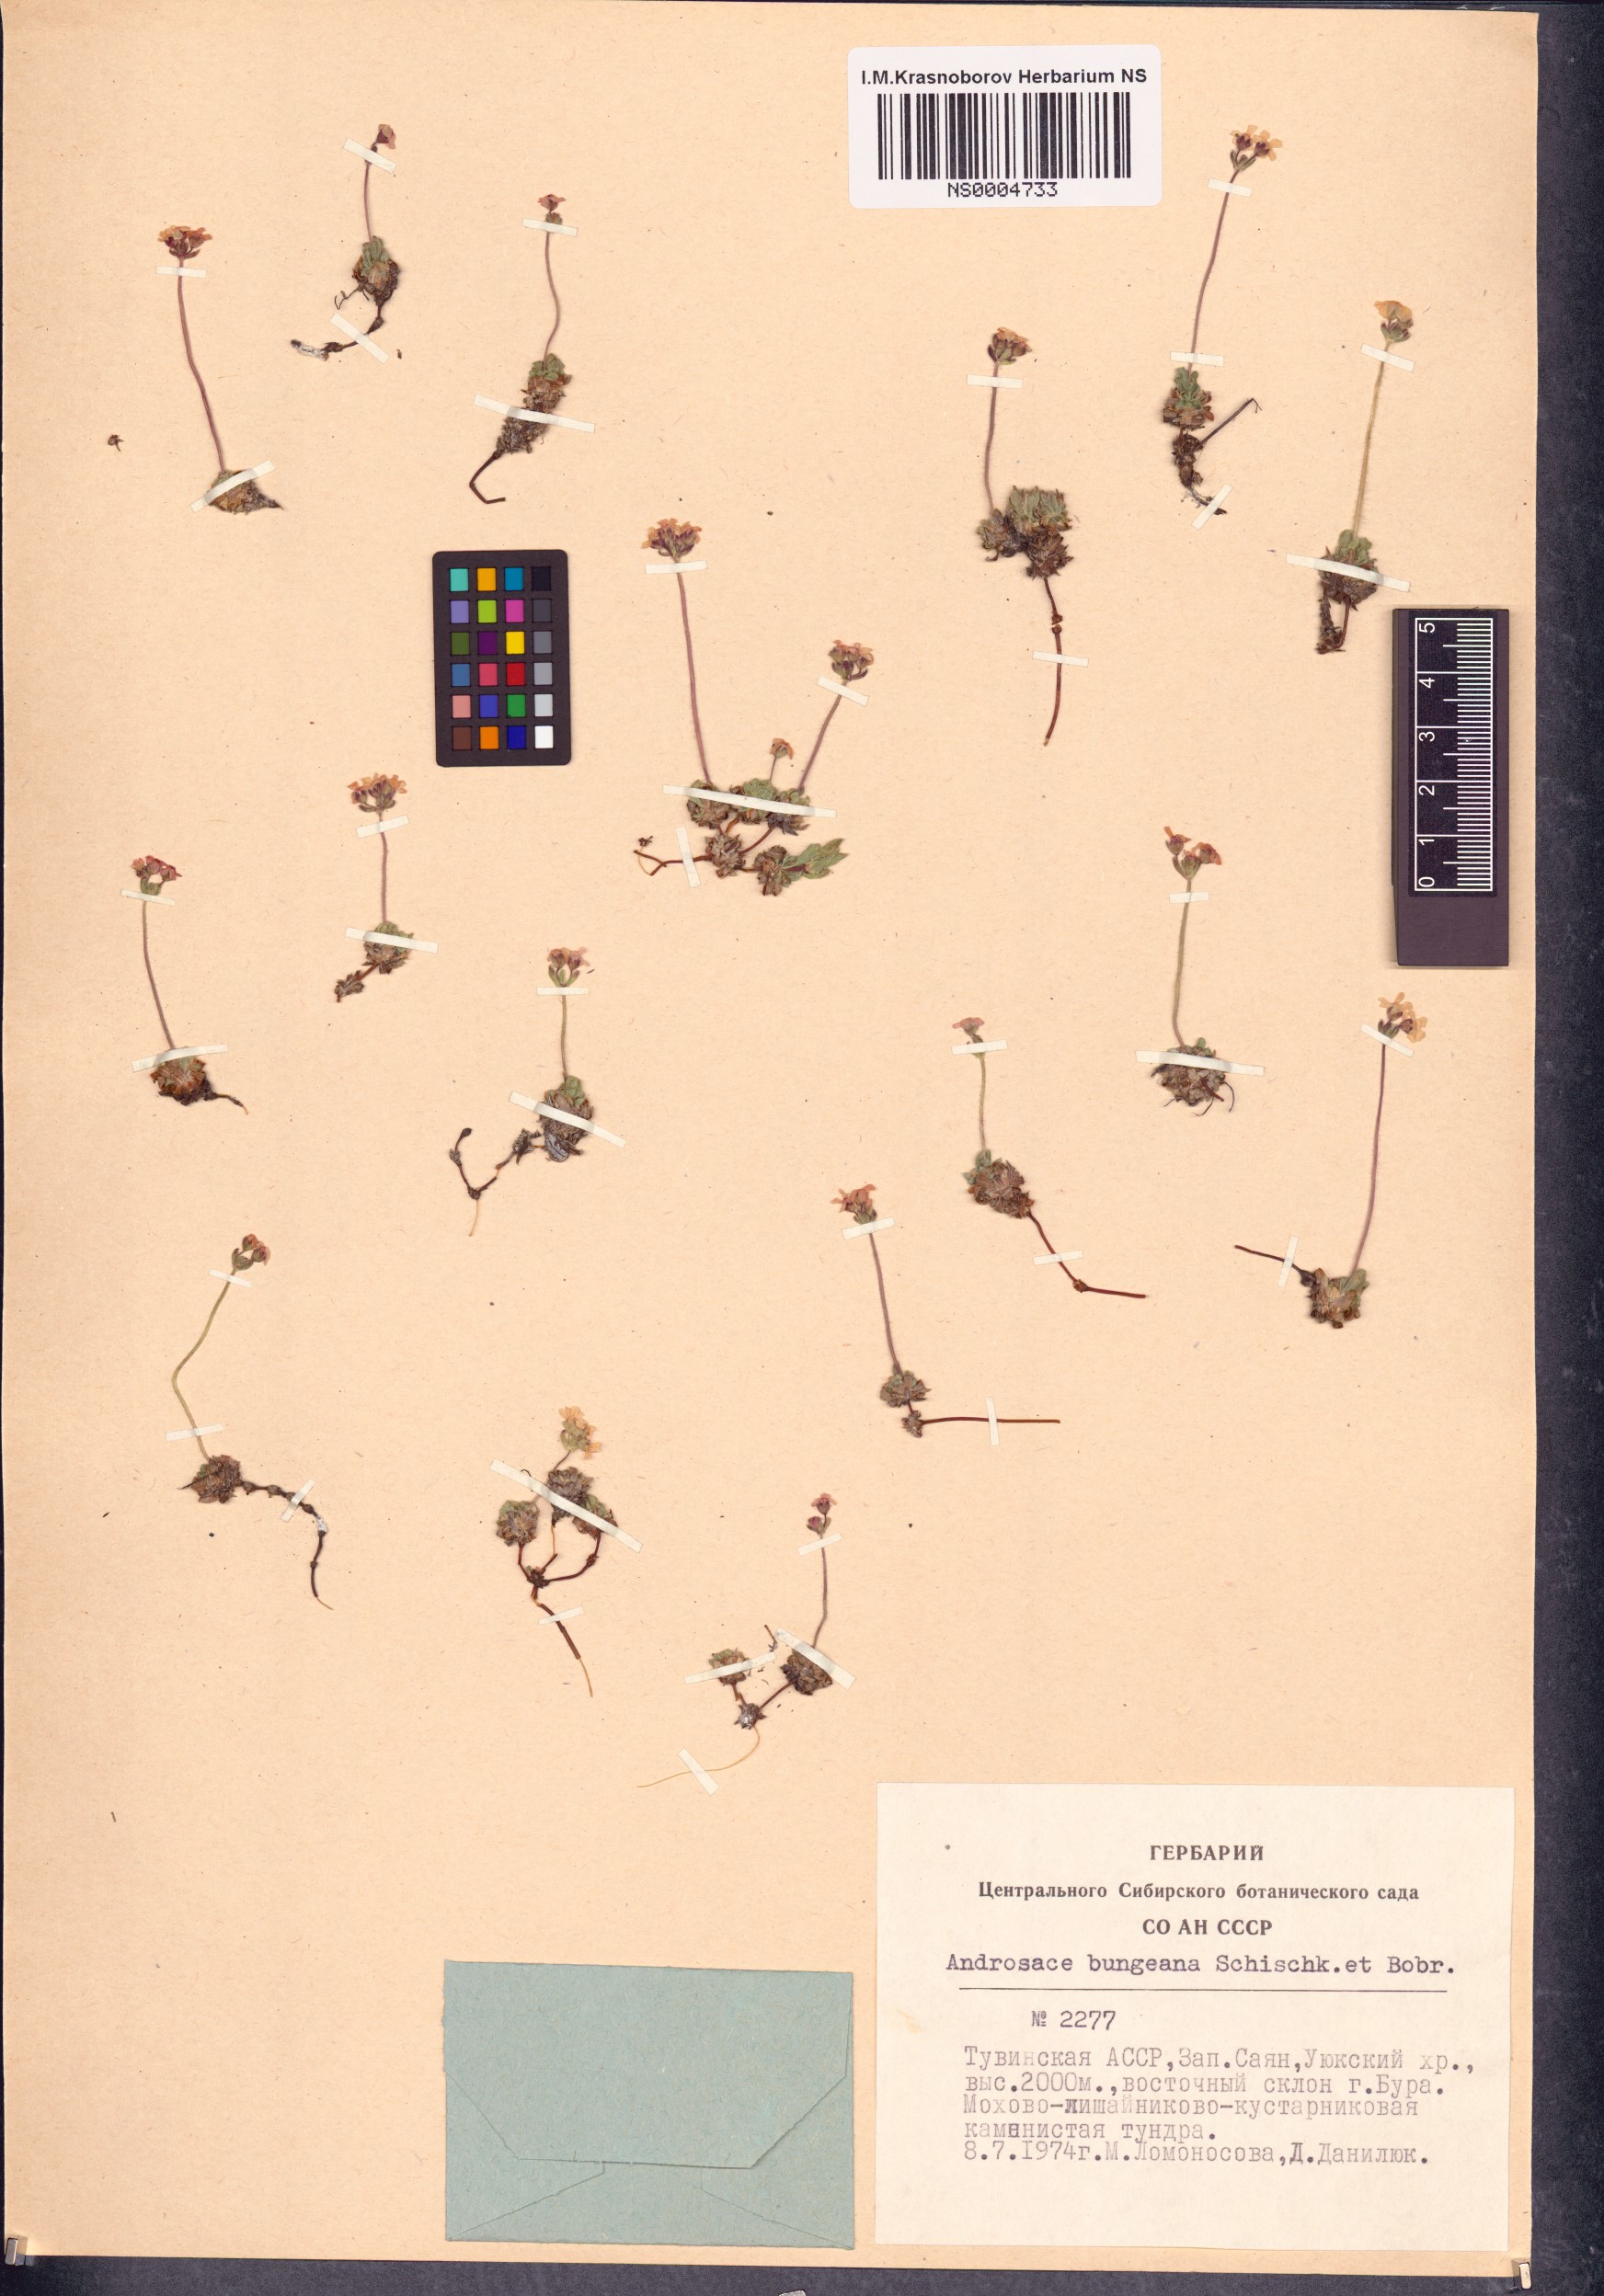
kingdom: Plantae
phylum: Tracheophyta
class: Magnoliopsida
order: Ericales
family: Primulaceae
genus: Androsace
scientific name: Androsace bungeana
